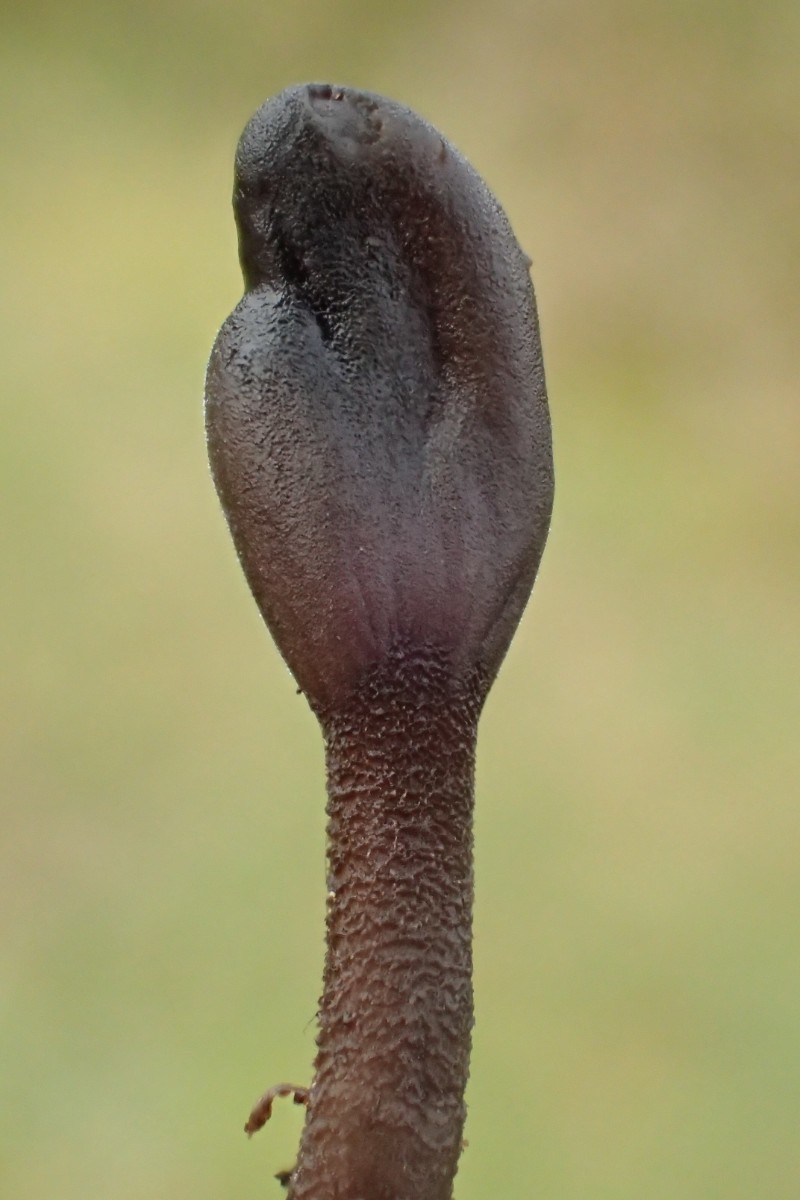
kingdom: Fungi
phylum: Ascomycota
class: Geoglossomycetes
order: Geoglossales
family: Geoglossaceae
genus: Hemileucoglossum
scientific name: Hemileucoglossum elongatum
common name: småsporet jordtunge
